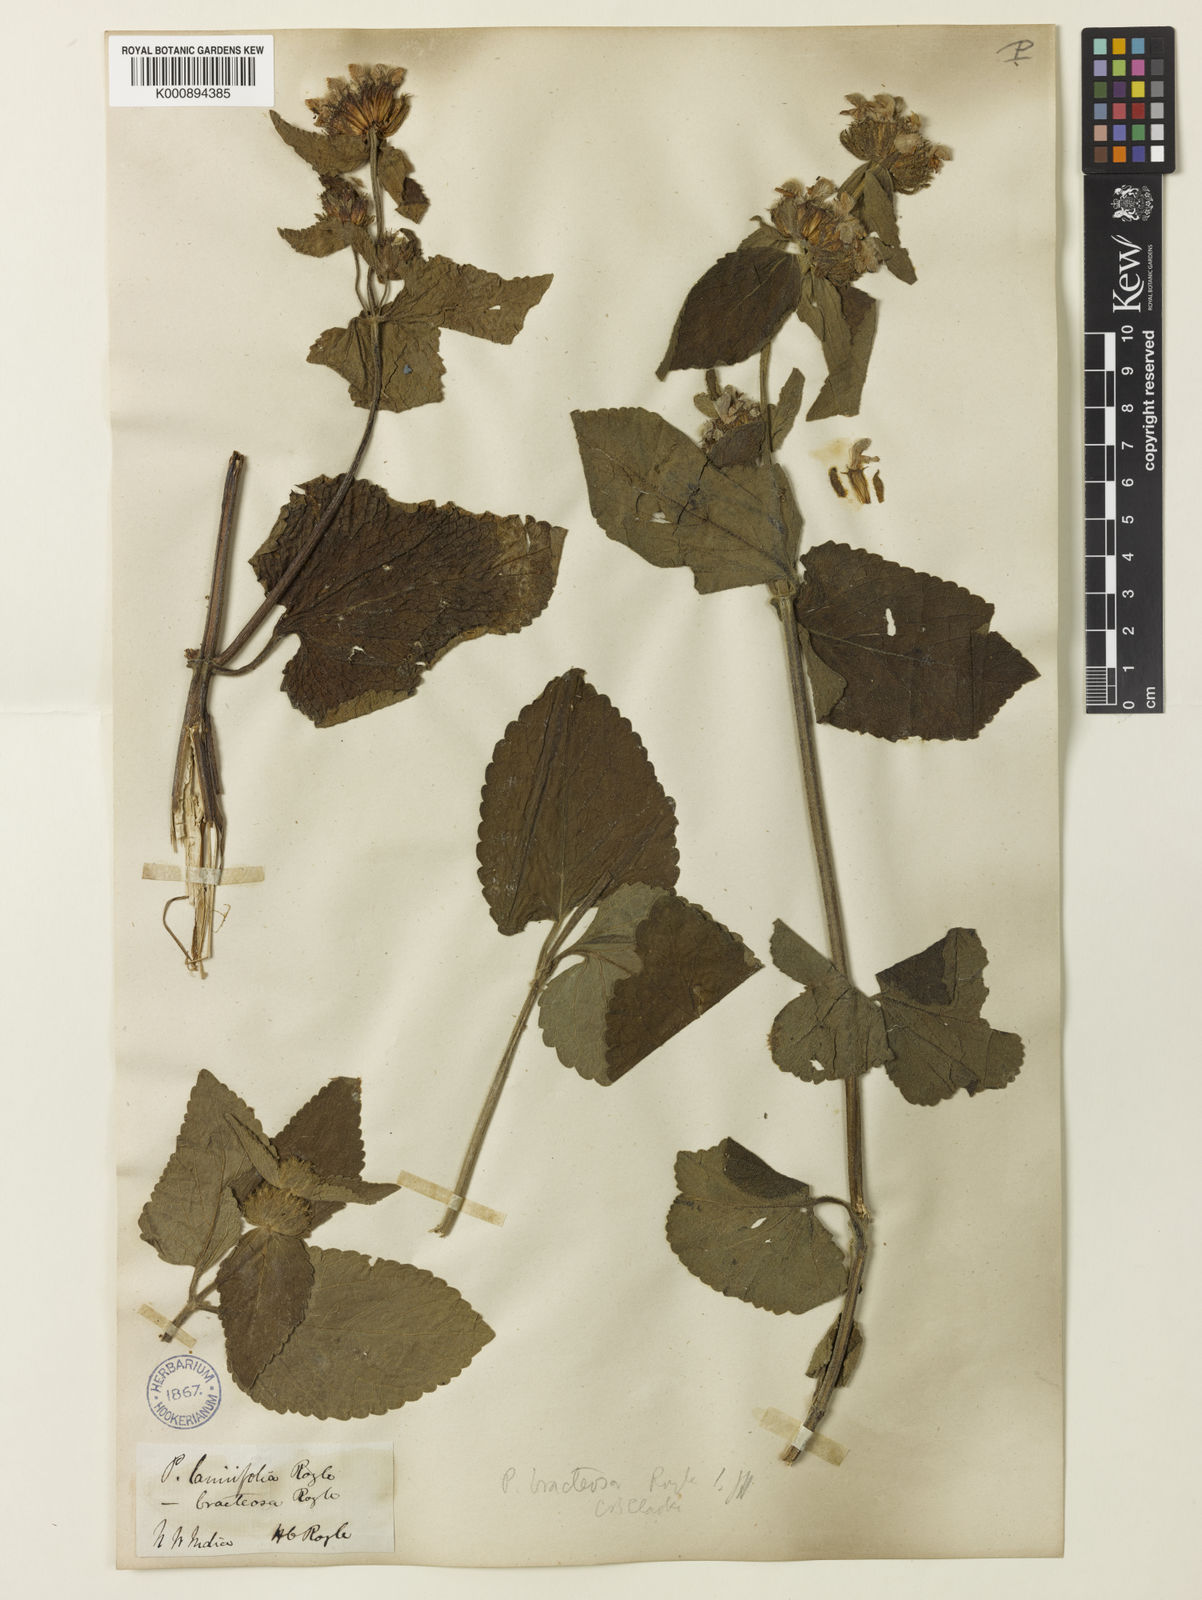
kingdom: Plantae
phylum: Tracheophyta
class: Magnoliopsida
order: Lamiales
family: Lamiaceae
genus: Phlomoides
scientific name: Phlomoides bracteosa
